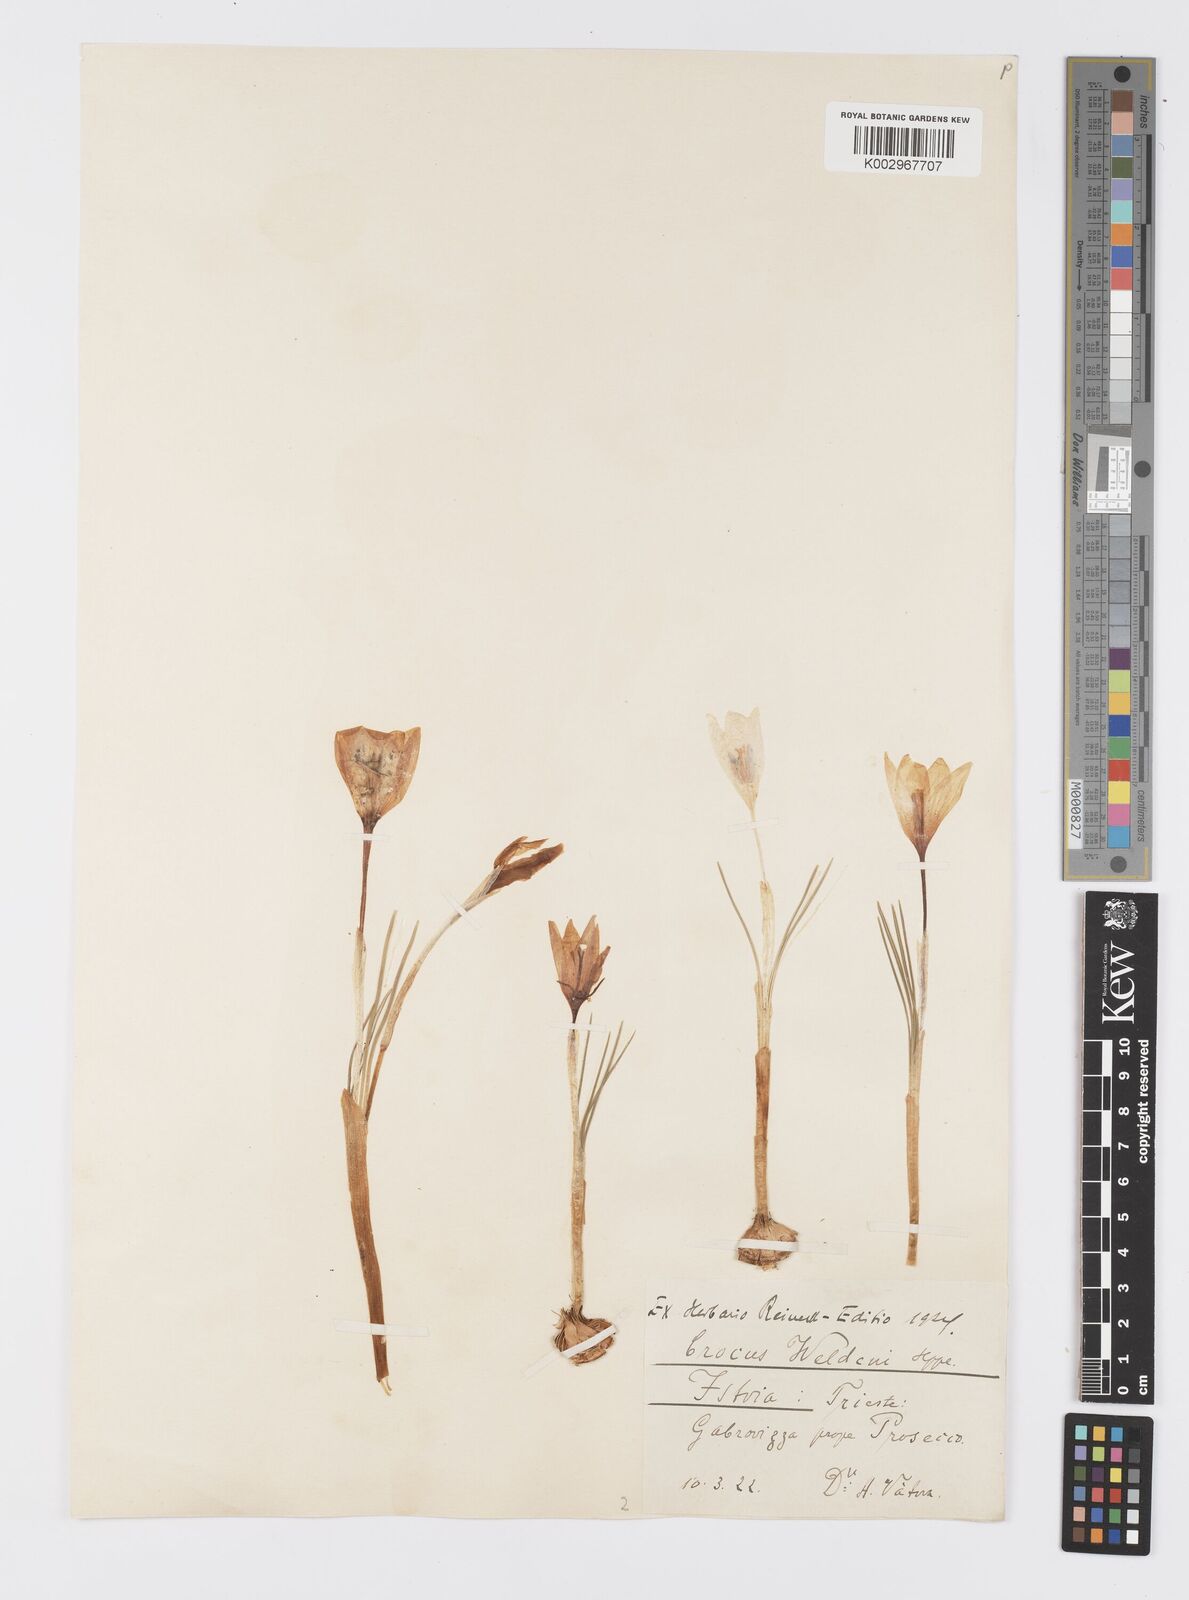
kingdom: Plantae
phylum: Tracheophyta
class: Liliopsida
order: Asparagales
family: Iridaceae
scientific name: Iridaceae
